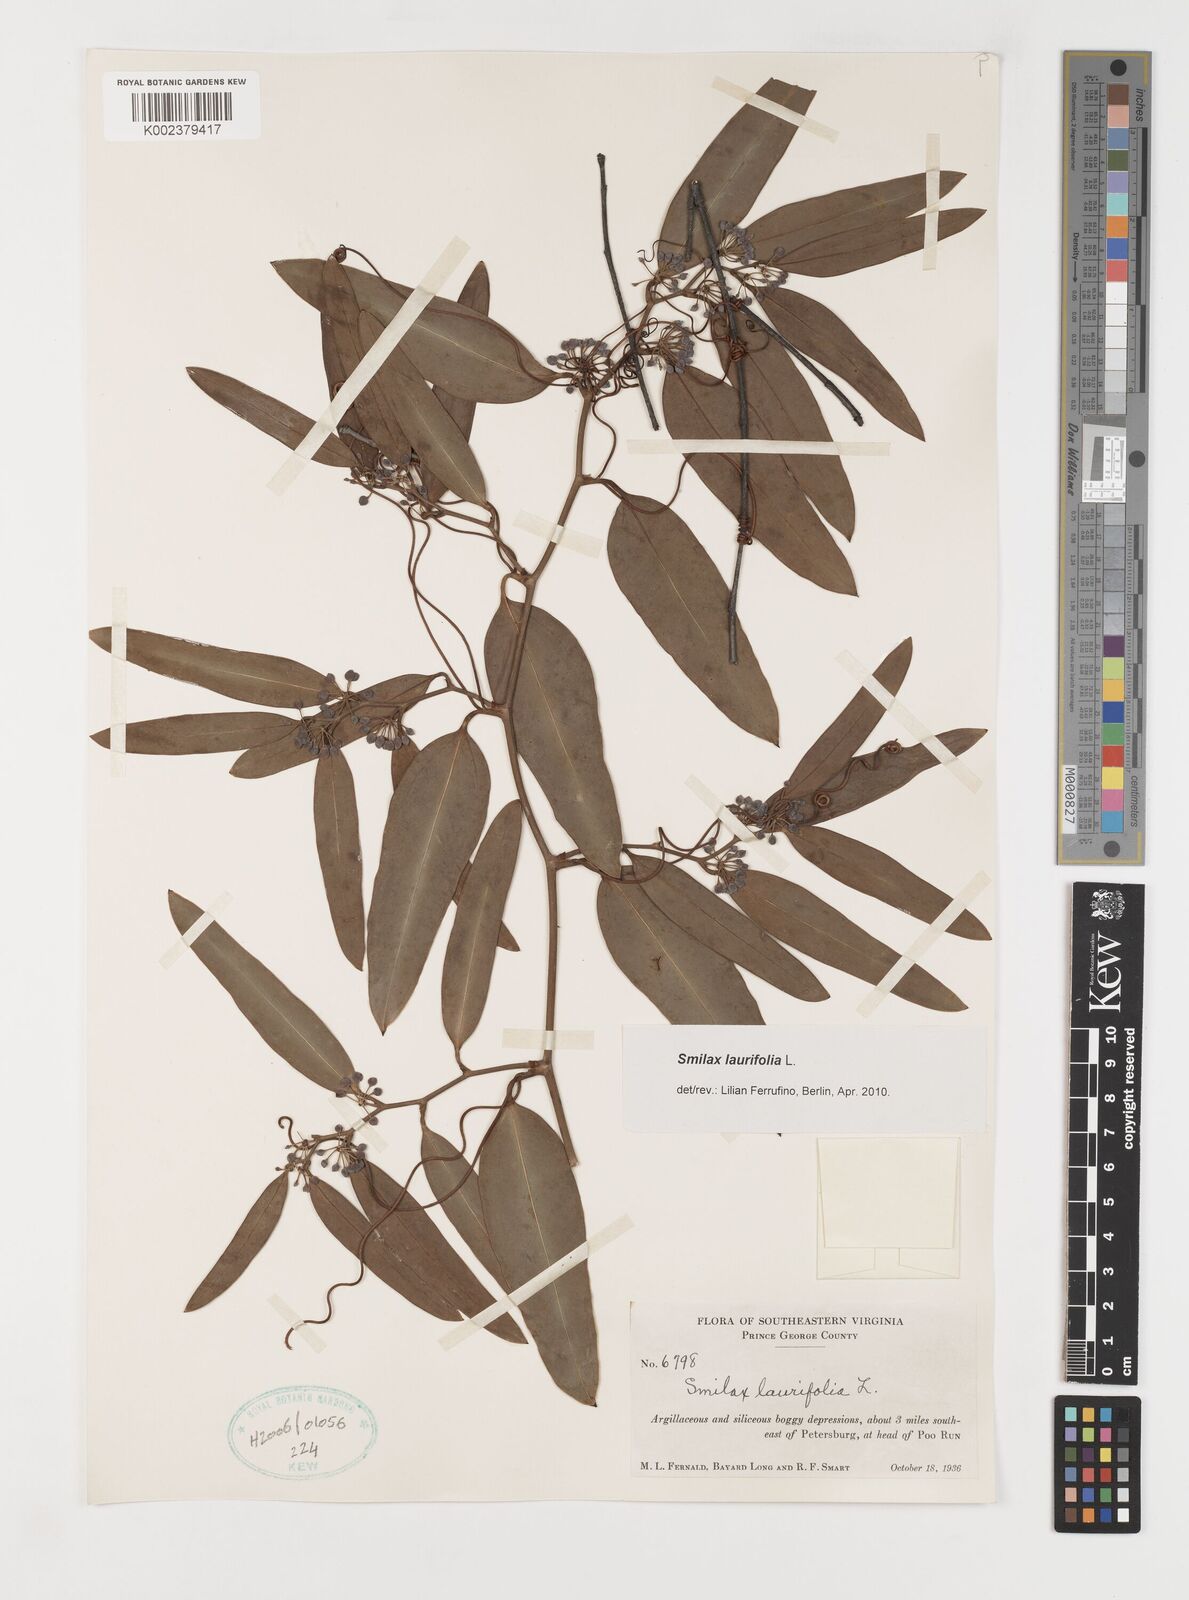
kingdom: Plantae
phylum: Tracheophyta
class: Liliopsida
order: Liliales
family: Smilacaceae
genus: Smilax
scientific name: Smilax laurifolia
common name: Bamboovine
